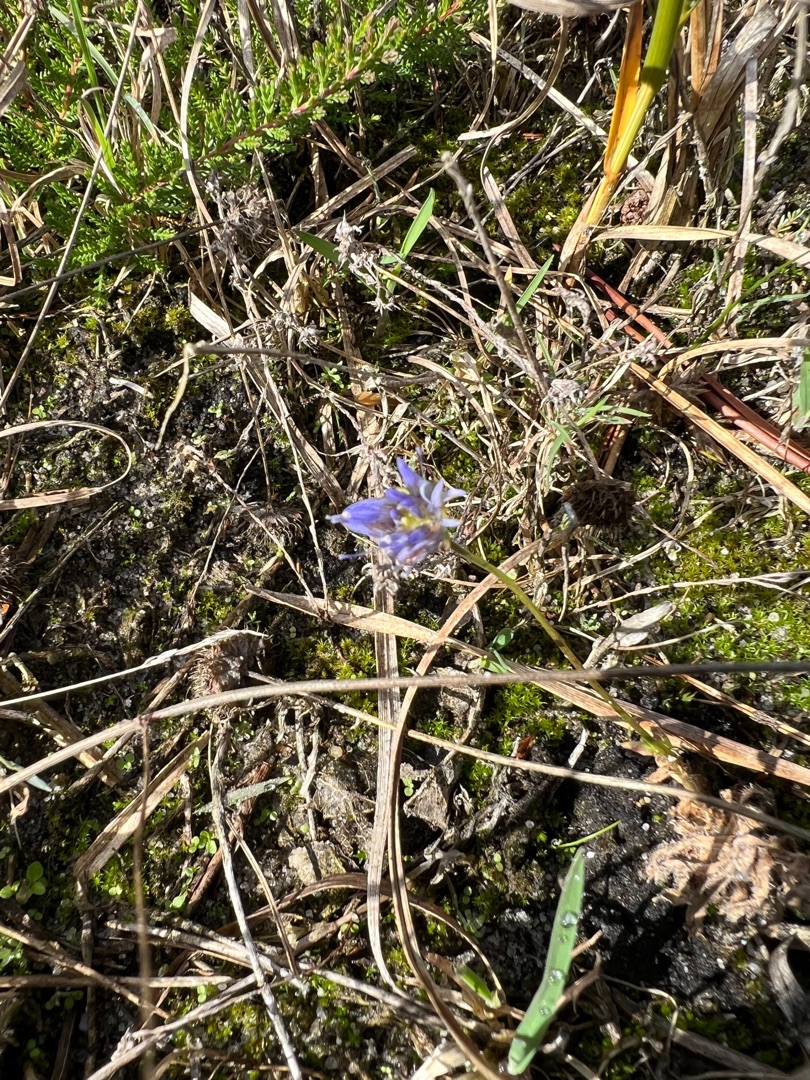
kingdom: Plantae
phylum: Tracheophyta
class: Magnoliopsida
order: Asterales
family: Campanulaceae
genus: Jasione
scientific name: Jasione montana
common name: Blåmunke
